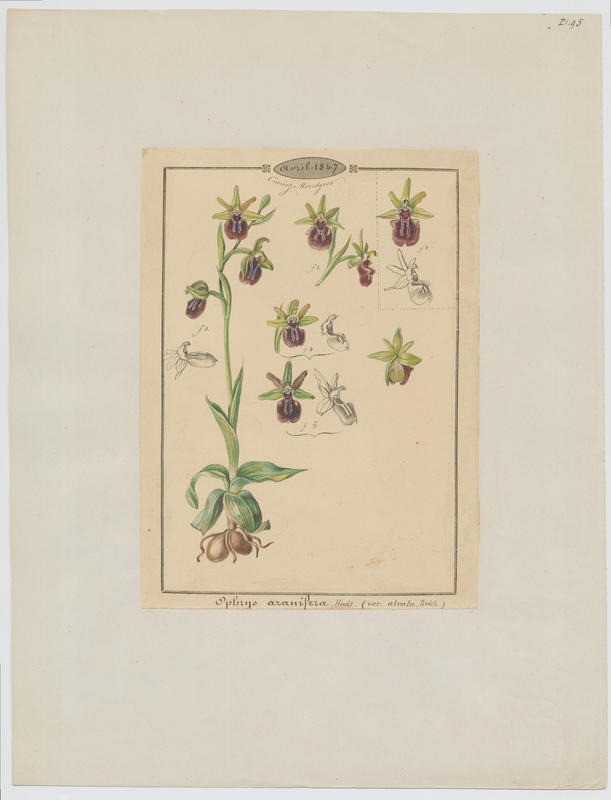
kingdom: Plantae
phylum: Tracheophyta
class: Liliopsida
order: Asparagales
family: Orchidaceae
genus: Ophrys
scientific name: Ophrys sphegodes
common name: Early spider-orchid
